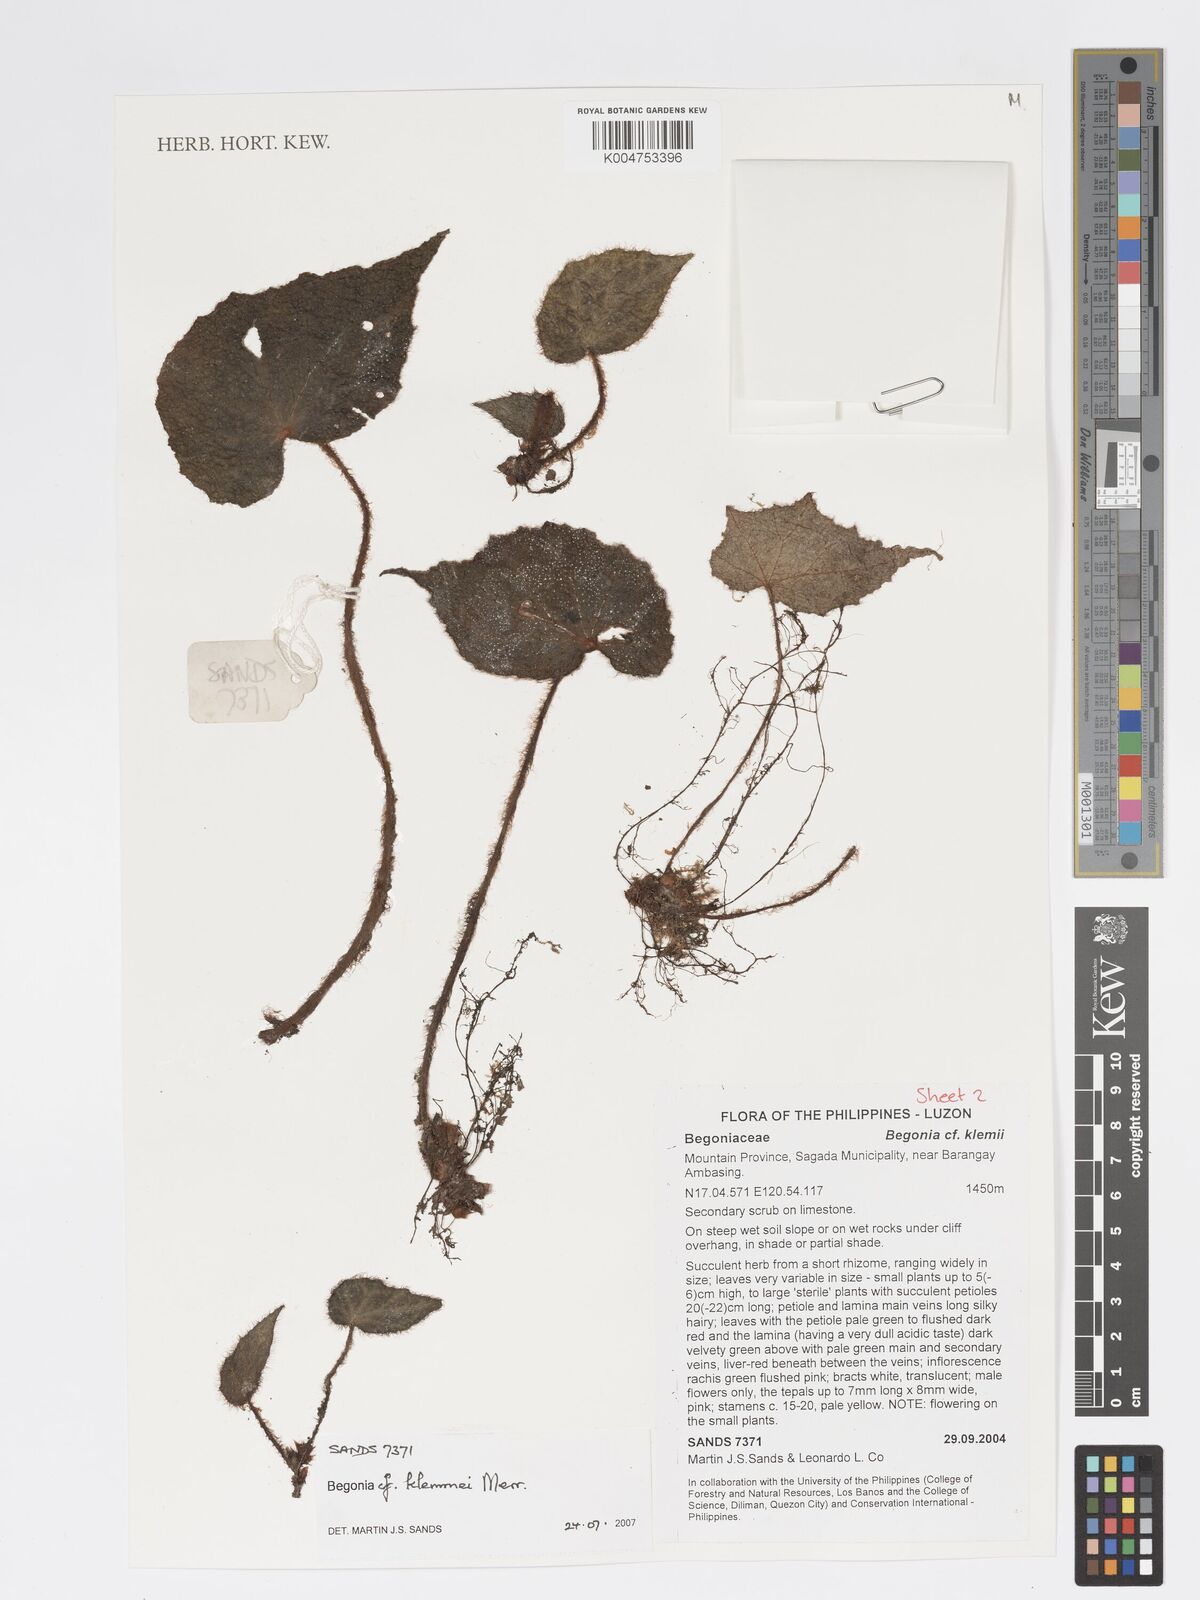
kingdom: Plantae
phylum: Tracheophyta
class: Magnoliopsida
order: Cucurbitales
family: Begoniaceae
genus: Begonia
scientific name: Begonia klemmei
